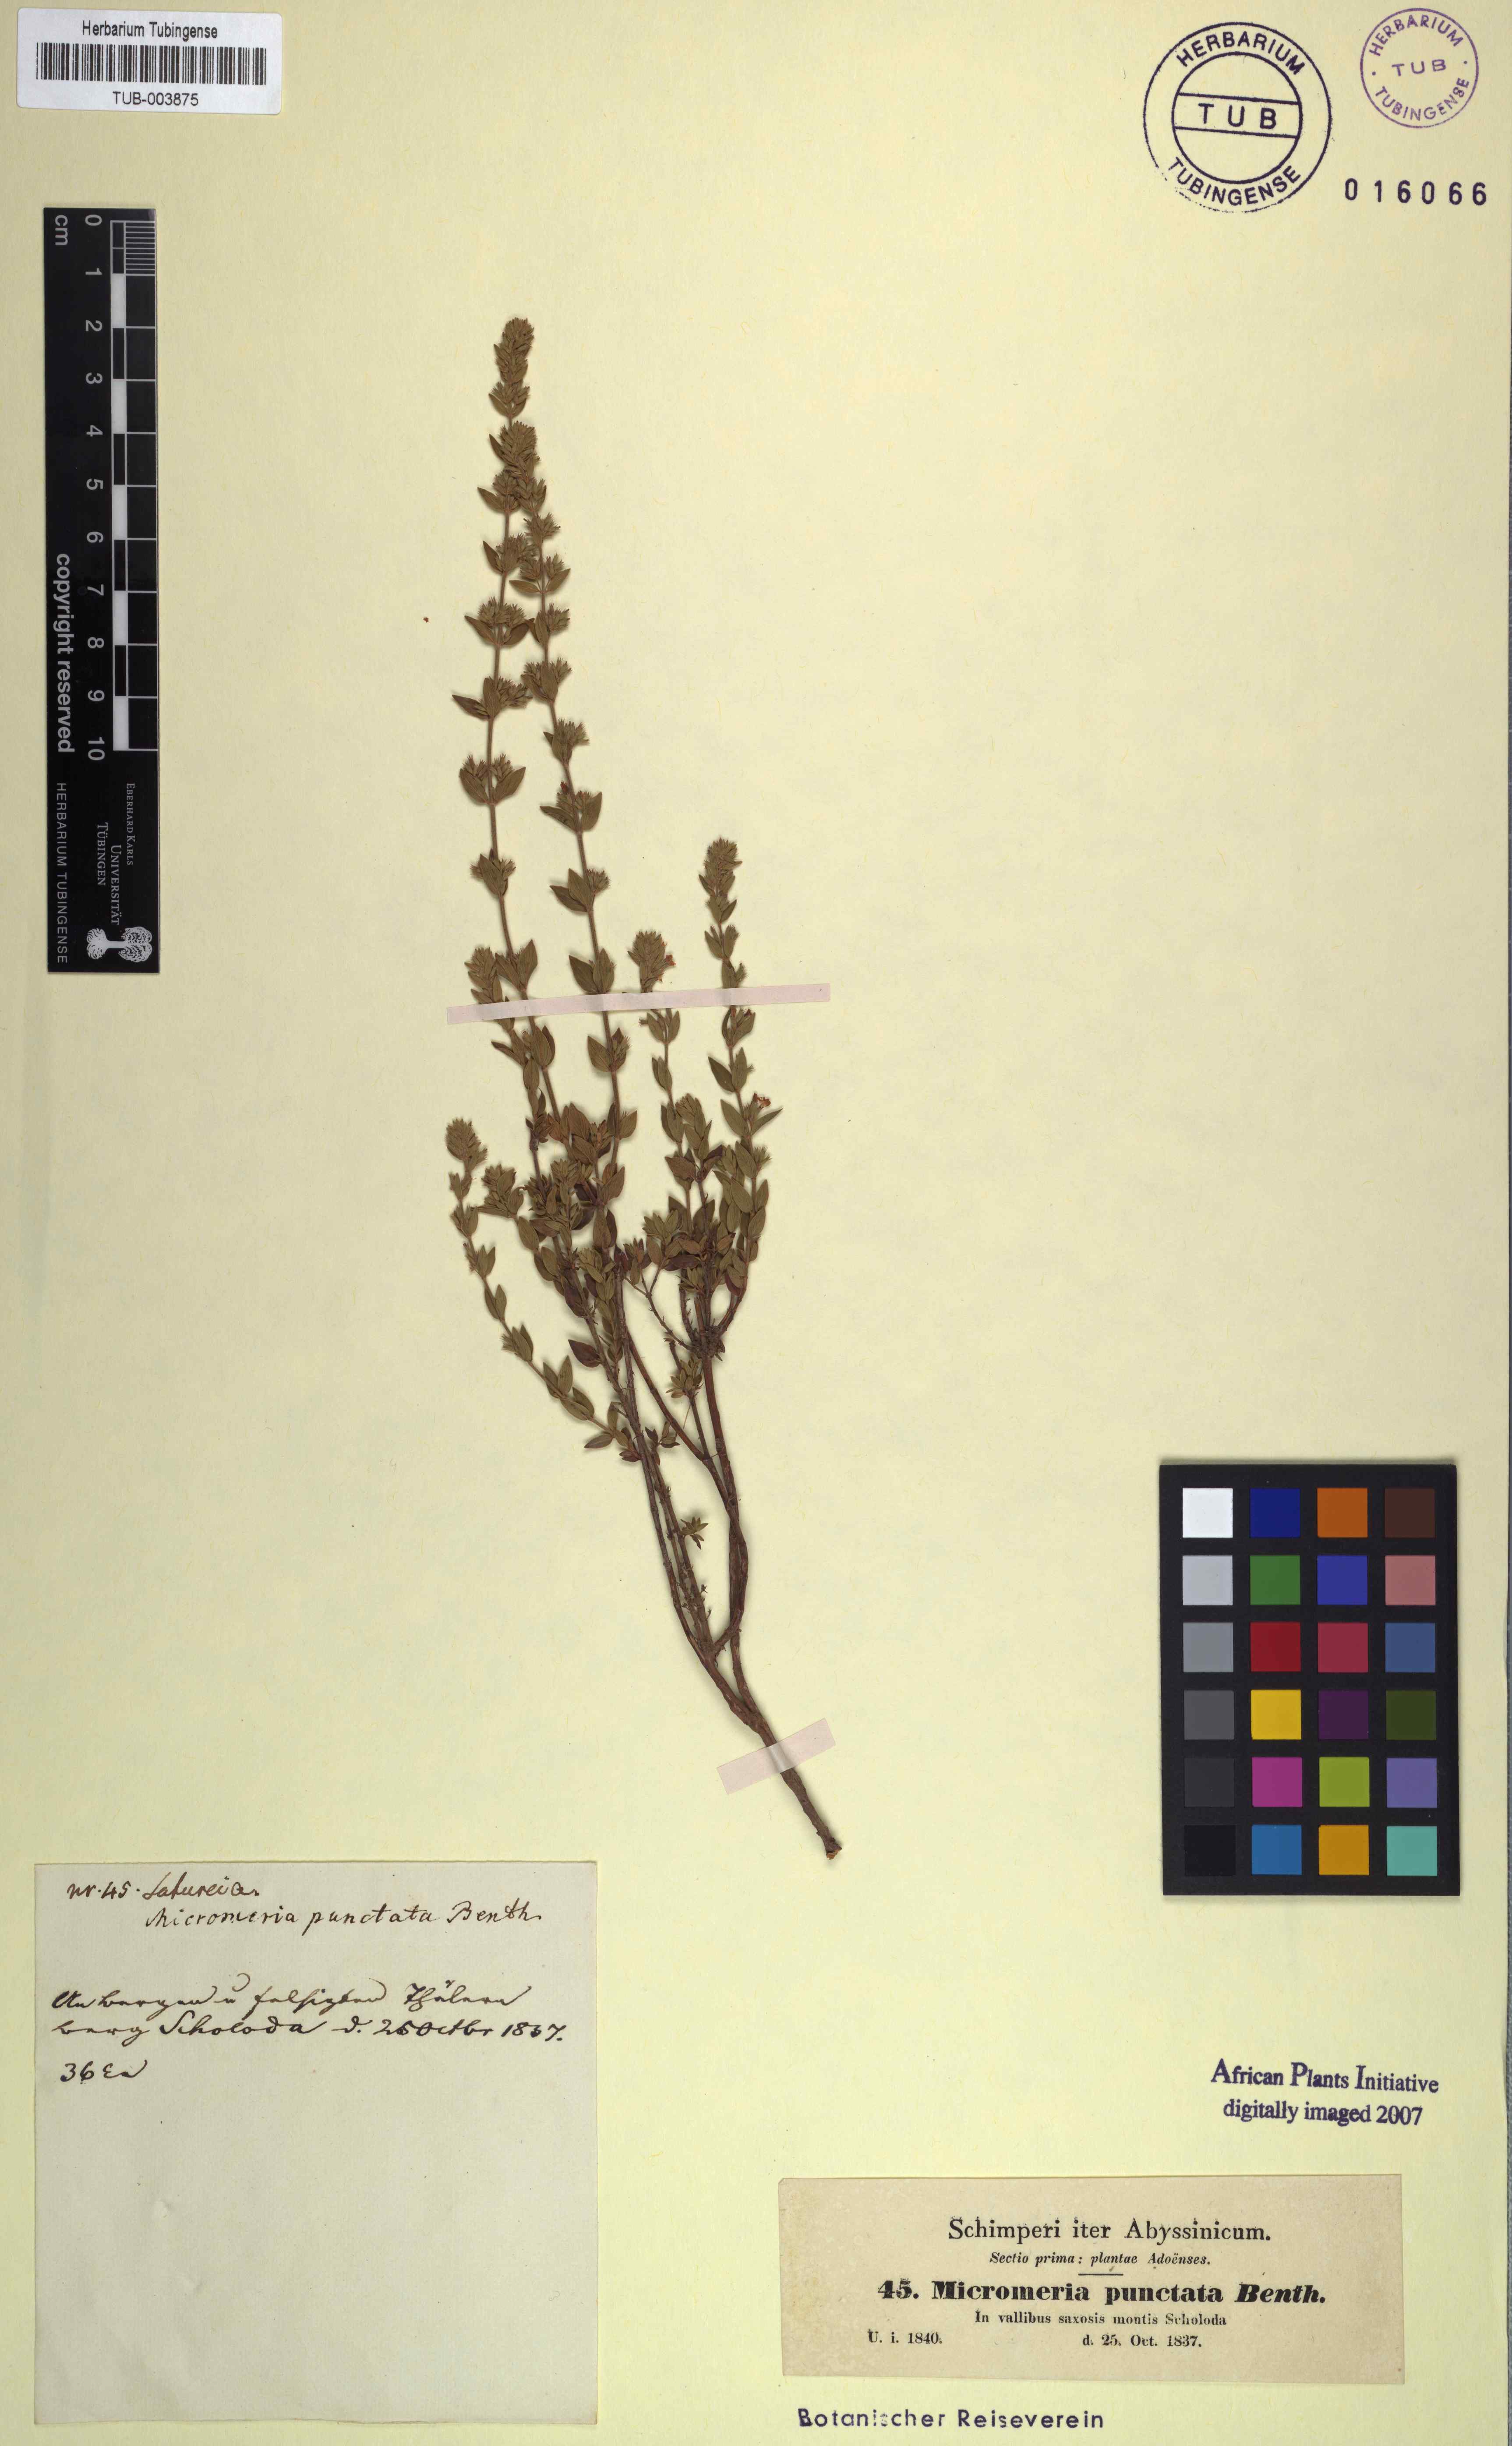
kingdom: Plantae
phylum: Tracheophyta
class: Magnoliopsida
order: Lamiales
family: Lamiaceae
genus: Micromeria
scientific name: Micromeria imbricata
